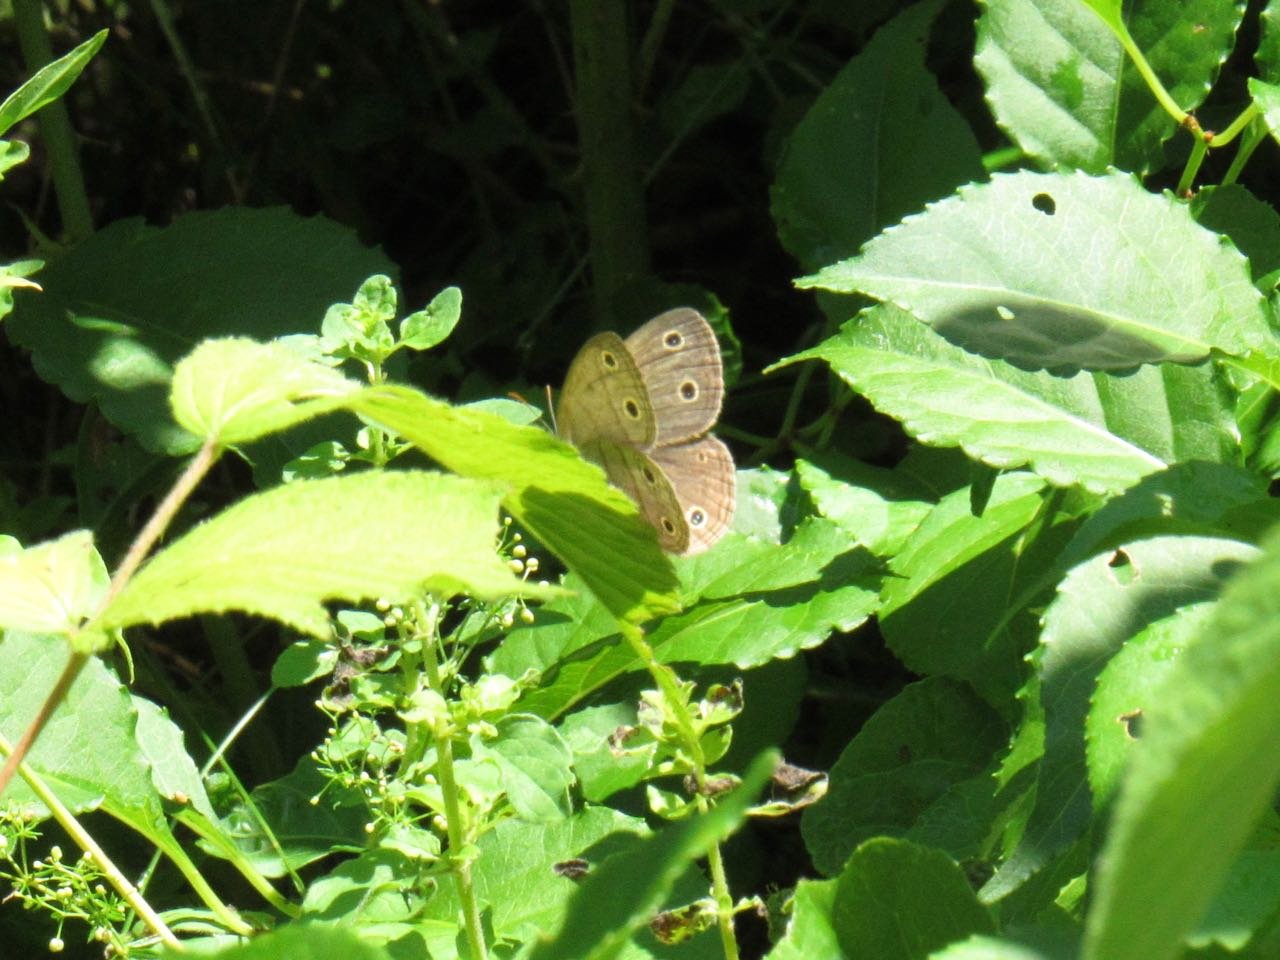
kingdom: Animalia
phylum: Arthropoda
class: Insecta
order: Lepidoptera
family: Nymphalidae
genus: Euptychia
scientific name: Euptychia cymela
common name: Little Wood Satyr
